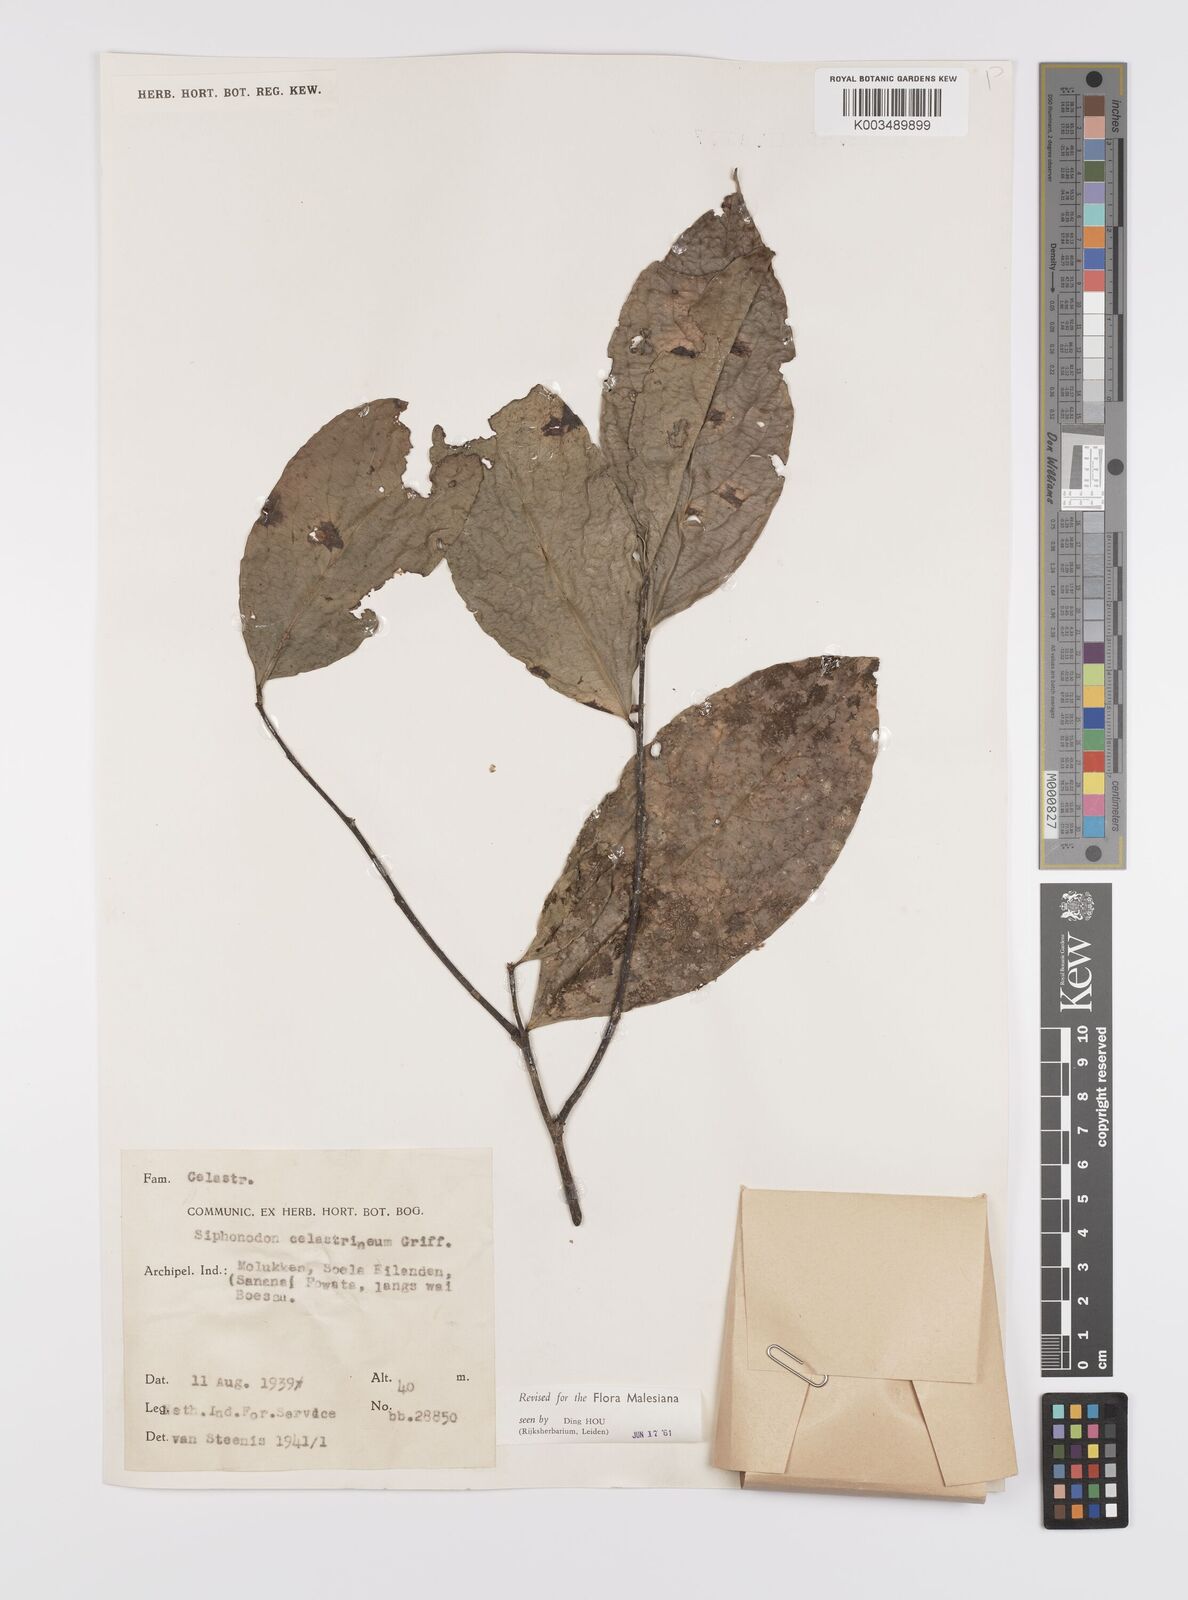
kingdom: Plantae
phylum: Tracheophyta
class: Magnoliopsida
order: Celastrales
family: Celastraceae
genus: Siphonodon
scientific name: Siphonodon celastrineus
